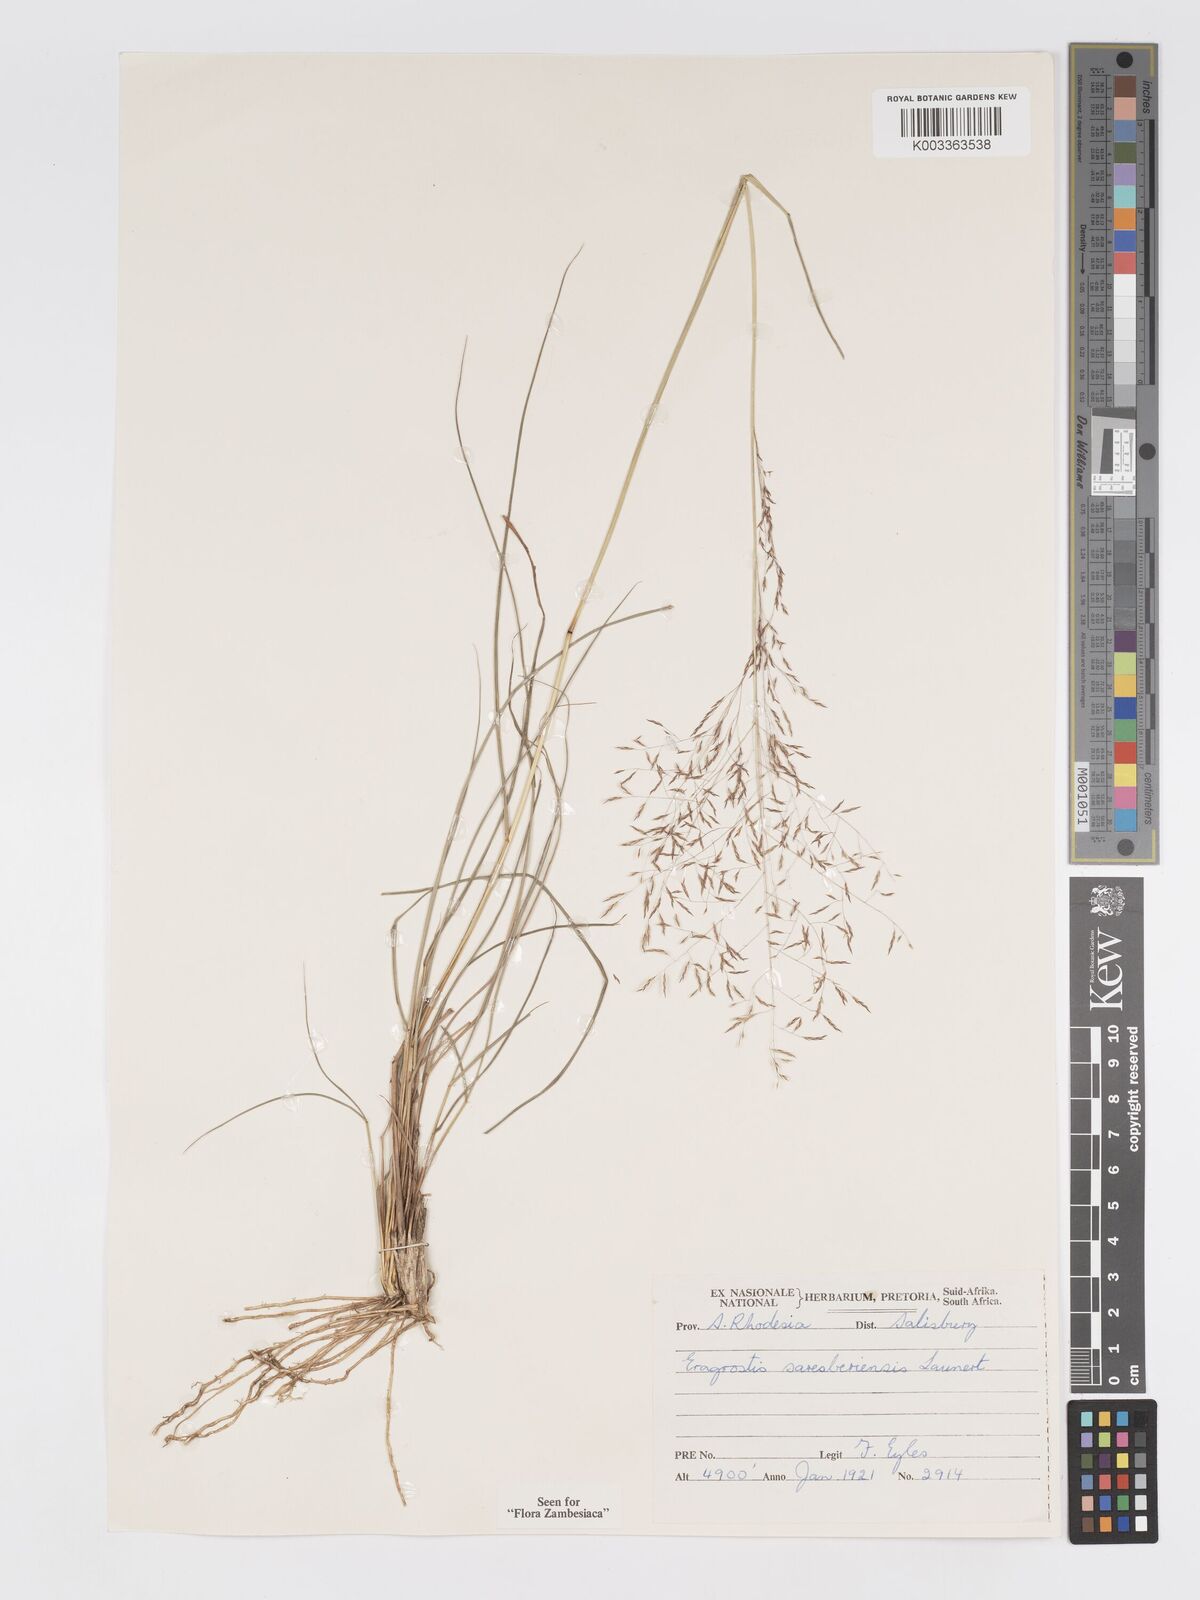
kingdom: Plantae
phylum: Tracheophyta
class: Liliopsida
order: Poales
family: Poaceae
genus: Eragrostis
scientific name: Eragrostis saresberiensis
